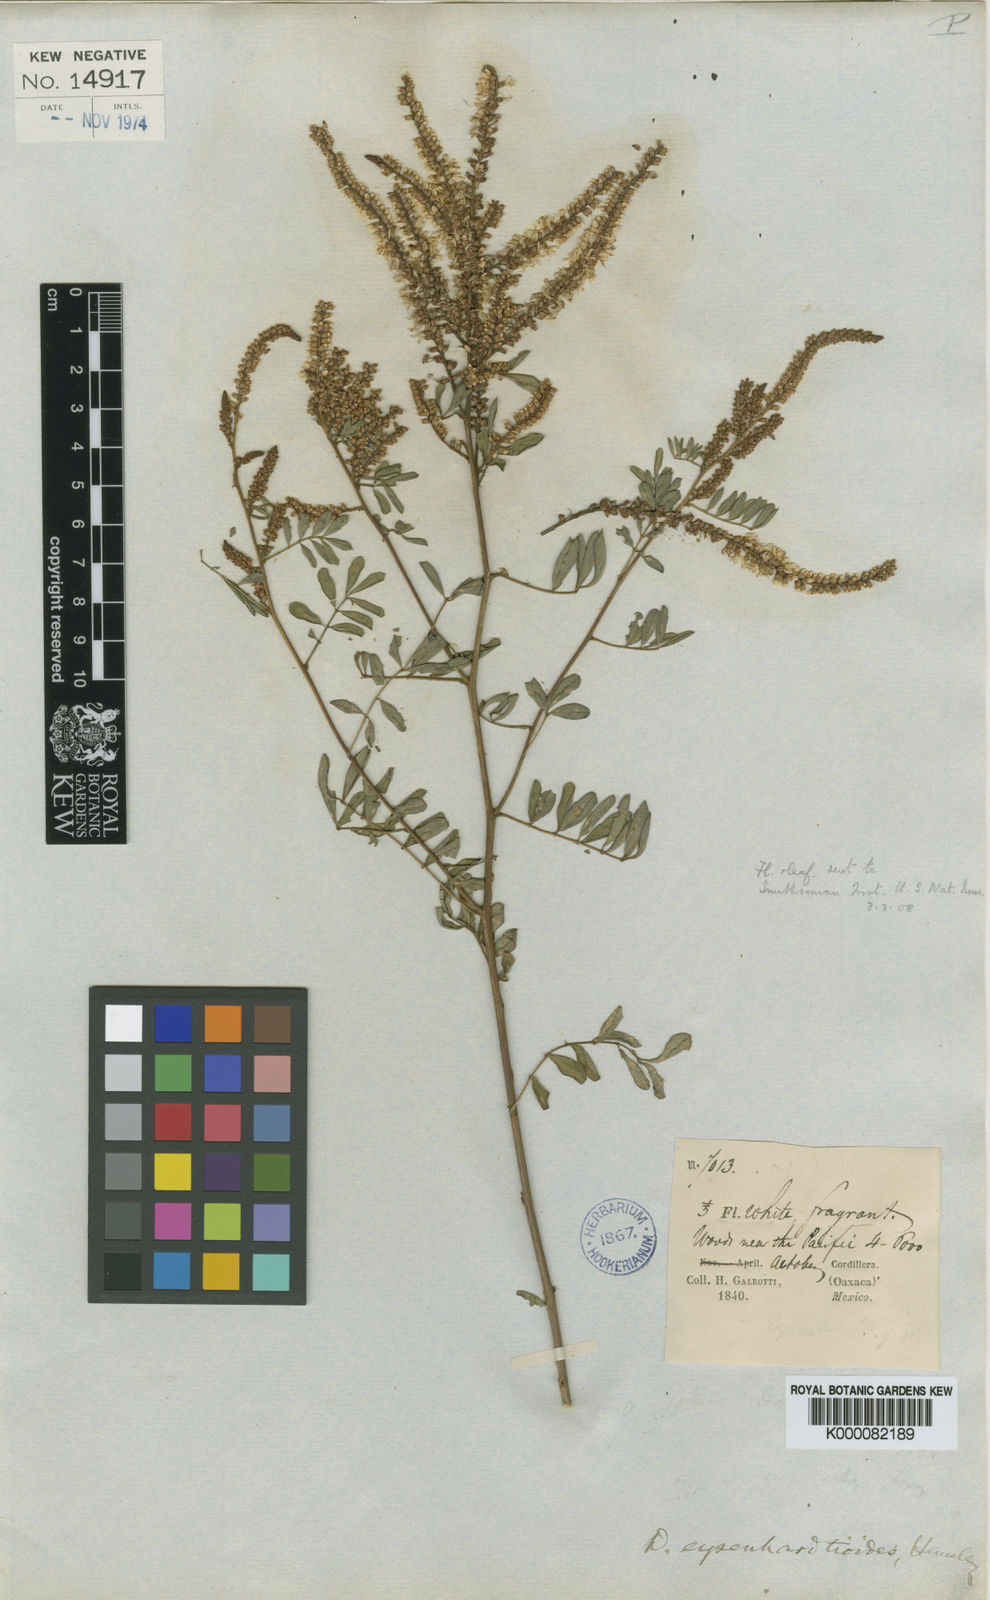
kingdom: Plantae
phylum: Tracheophyta
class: Magnoliopsida
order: Fabales
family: Fabaceae
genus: Dalea
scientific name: Dalea leucostachya
